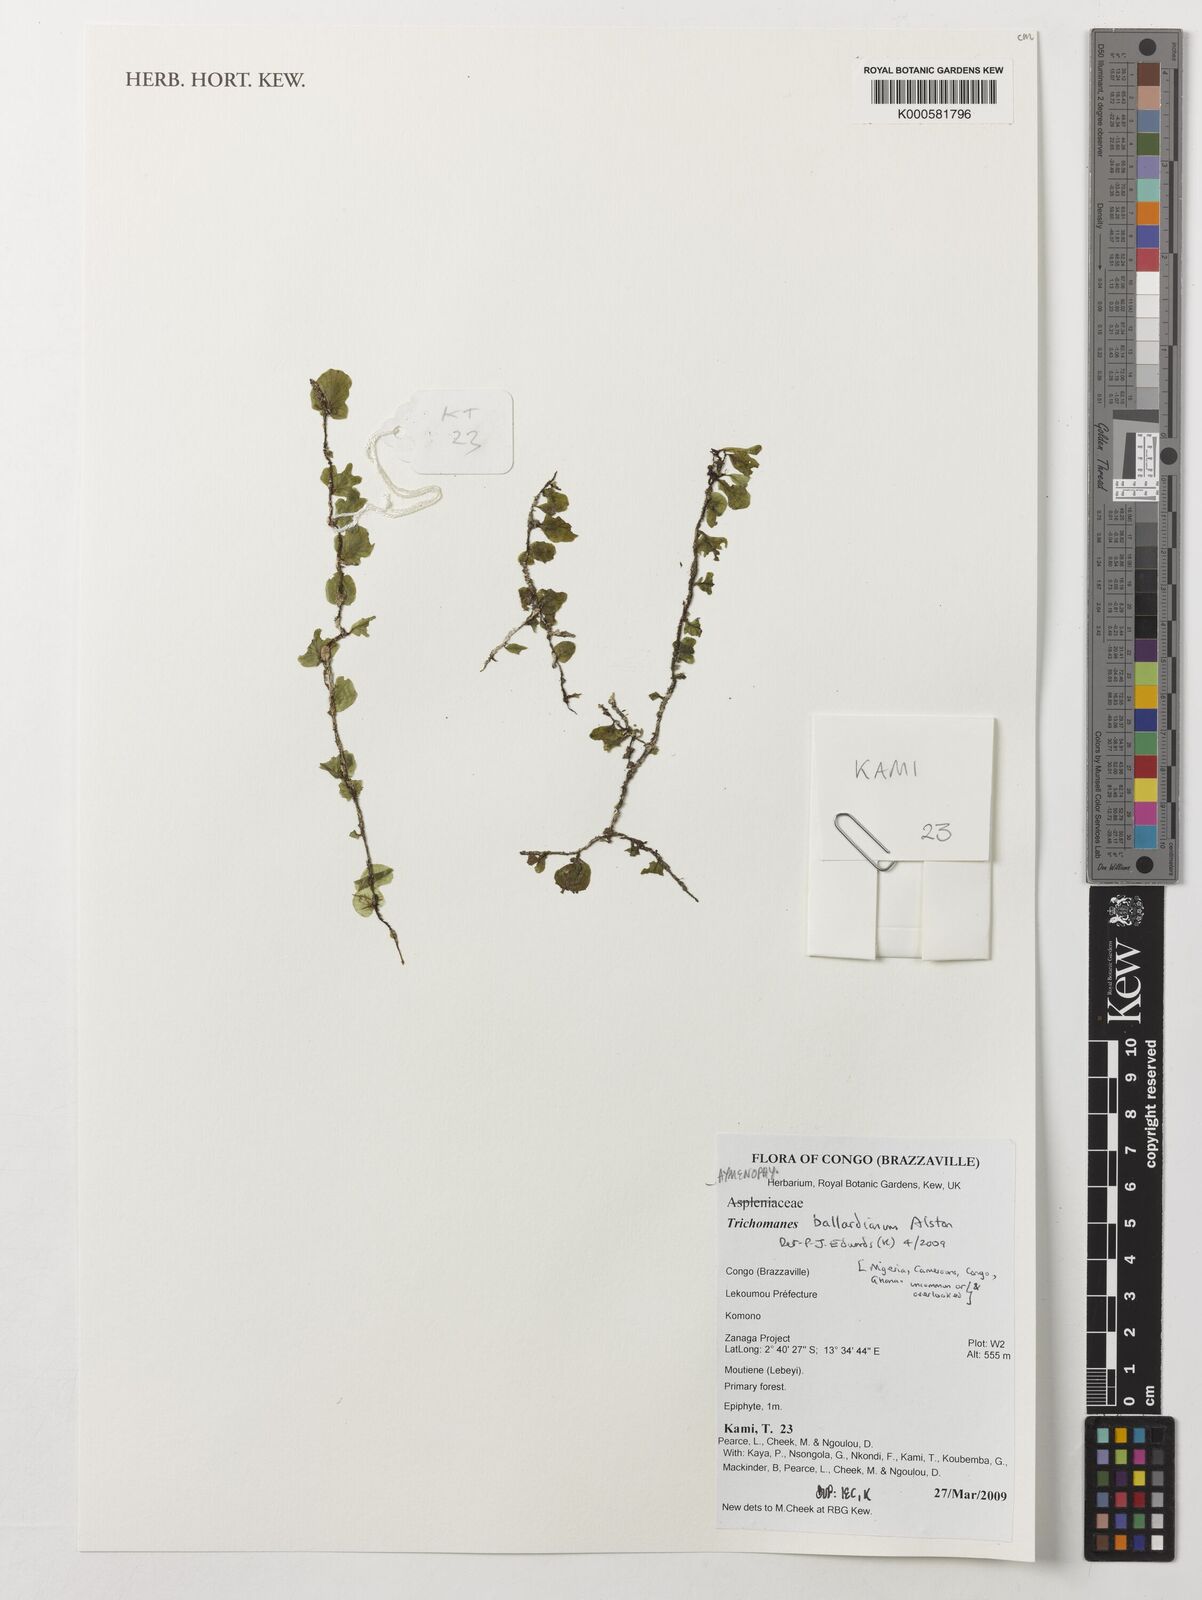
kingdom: Plantae
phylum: Tracheophyta
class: Polypodiopsida
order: Hymenophyllales
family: Hymenophyllaceae
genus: Didymoglossum
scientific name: Didymoglossum ballardianum
